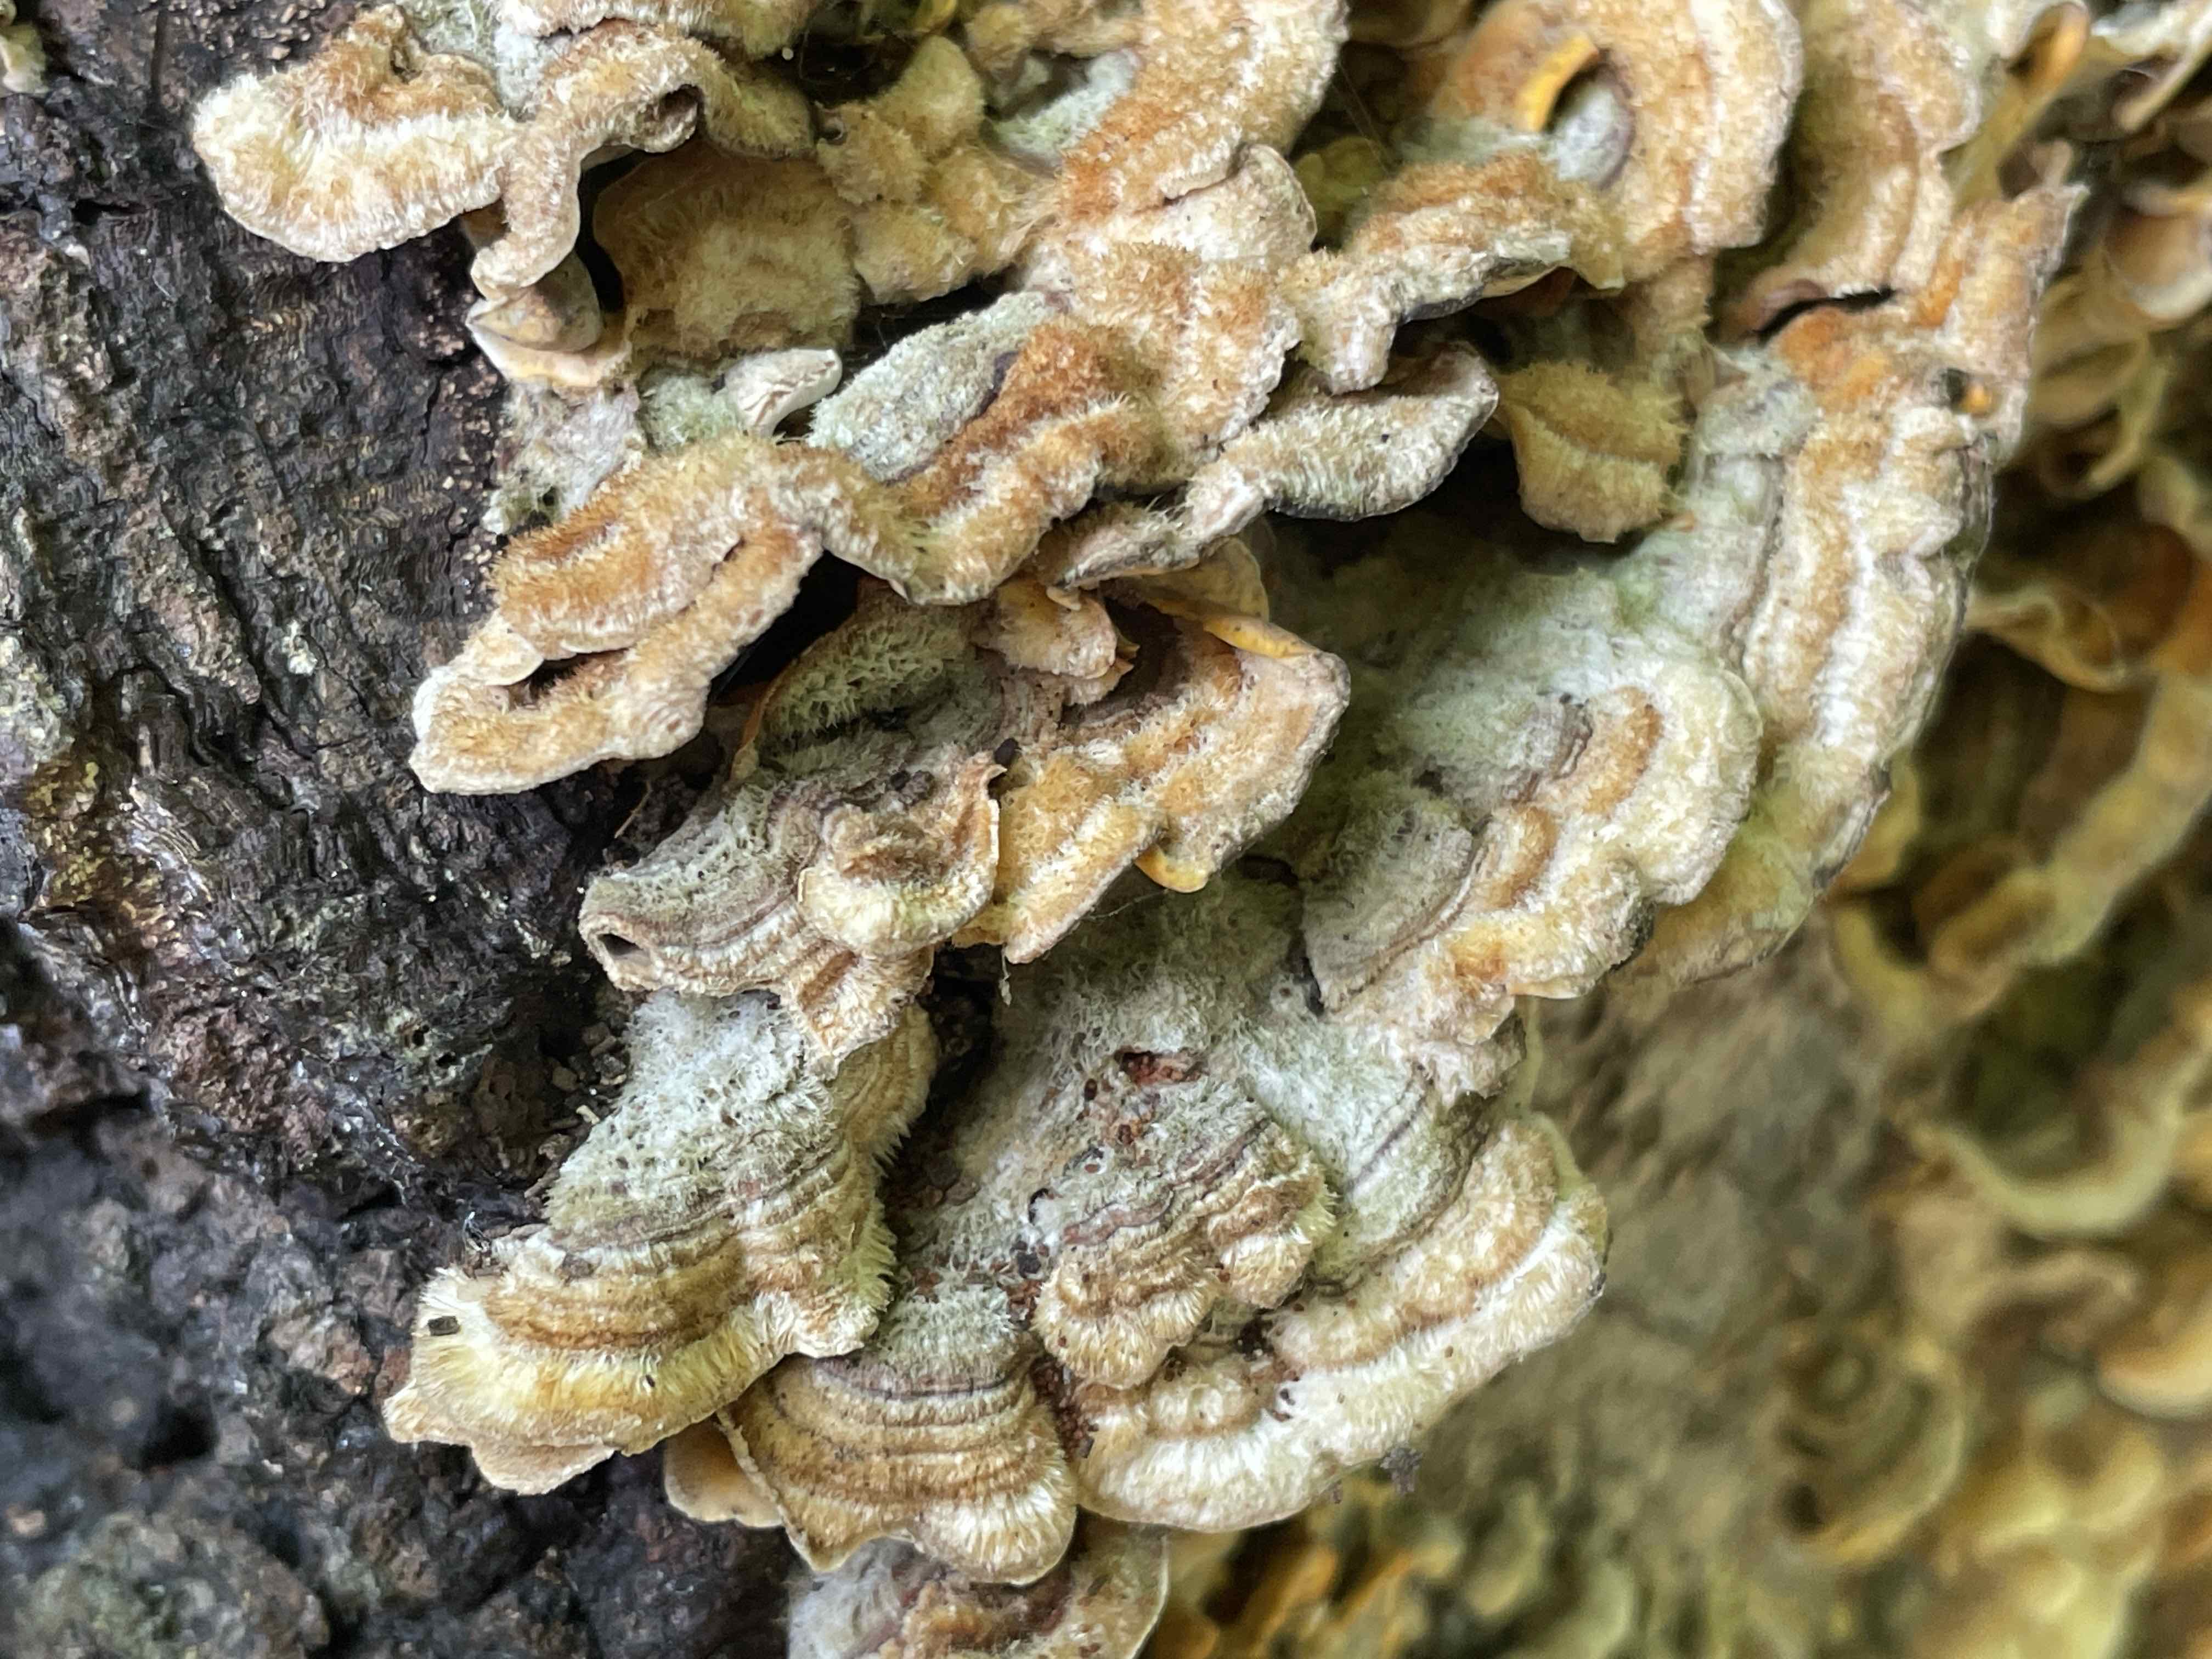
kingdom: Fungi
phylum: Basidiomycota
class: Agaricomycetes
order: Russulales
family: Stereaceae
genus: Stereum
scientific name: Stereum hirsutum
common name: håret lædersvamp
